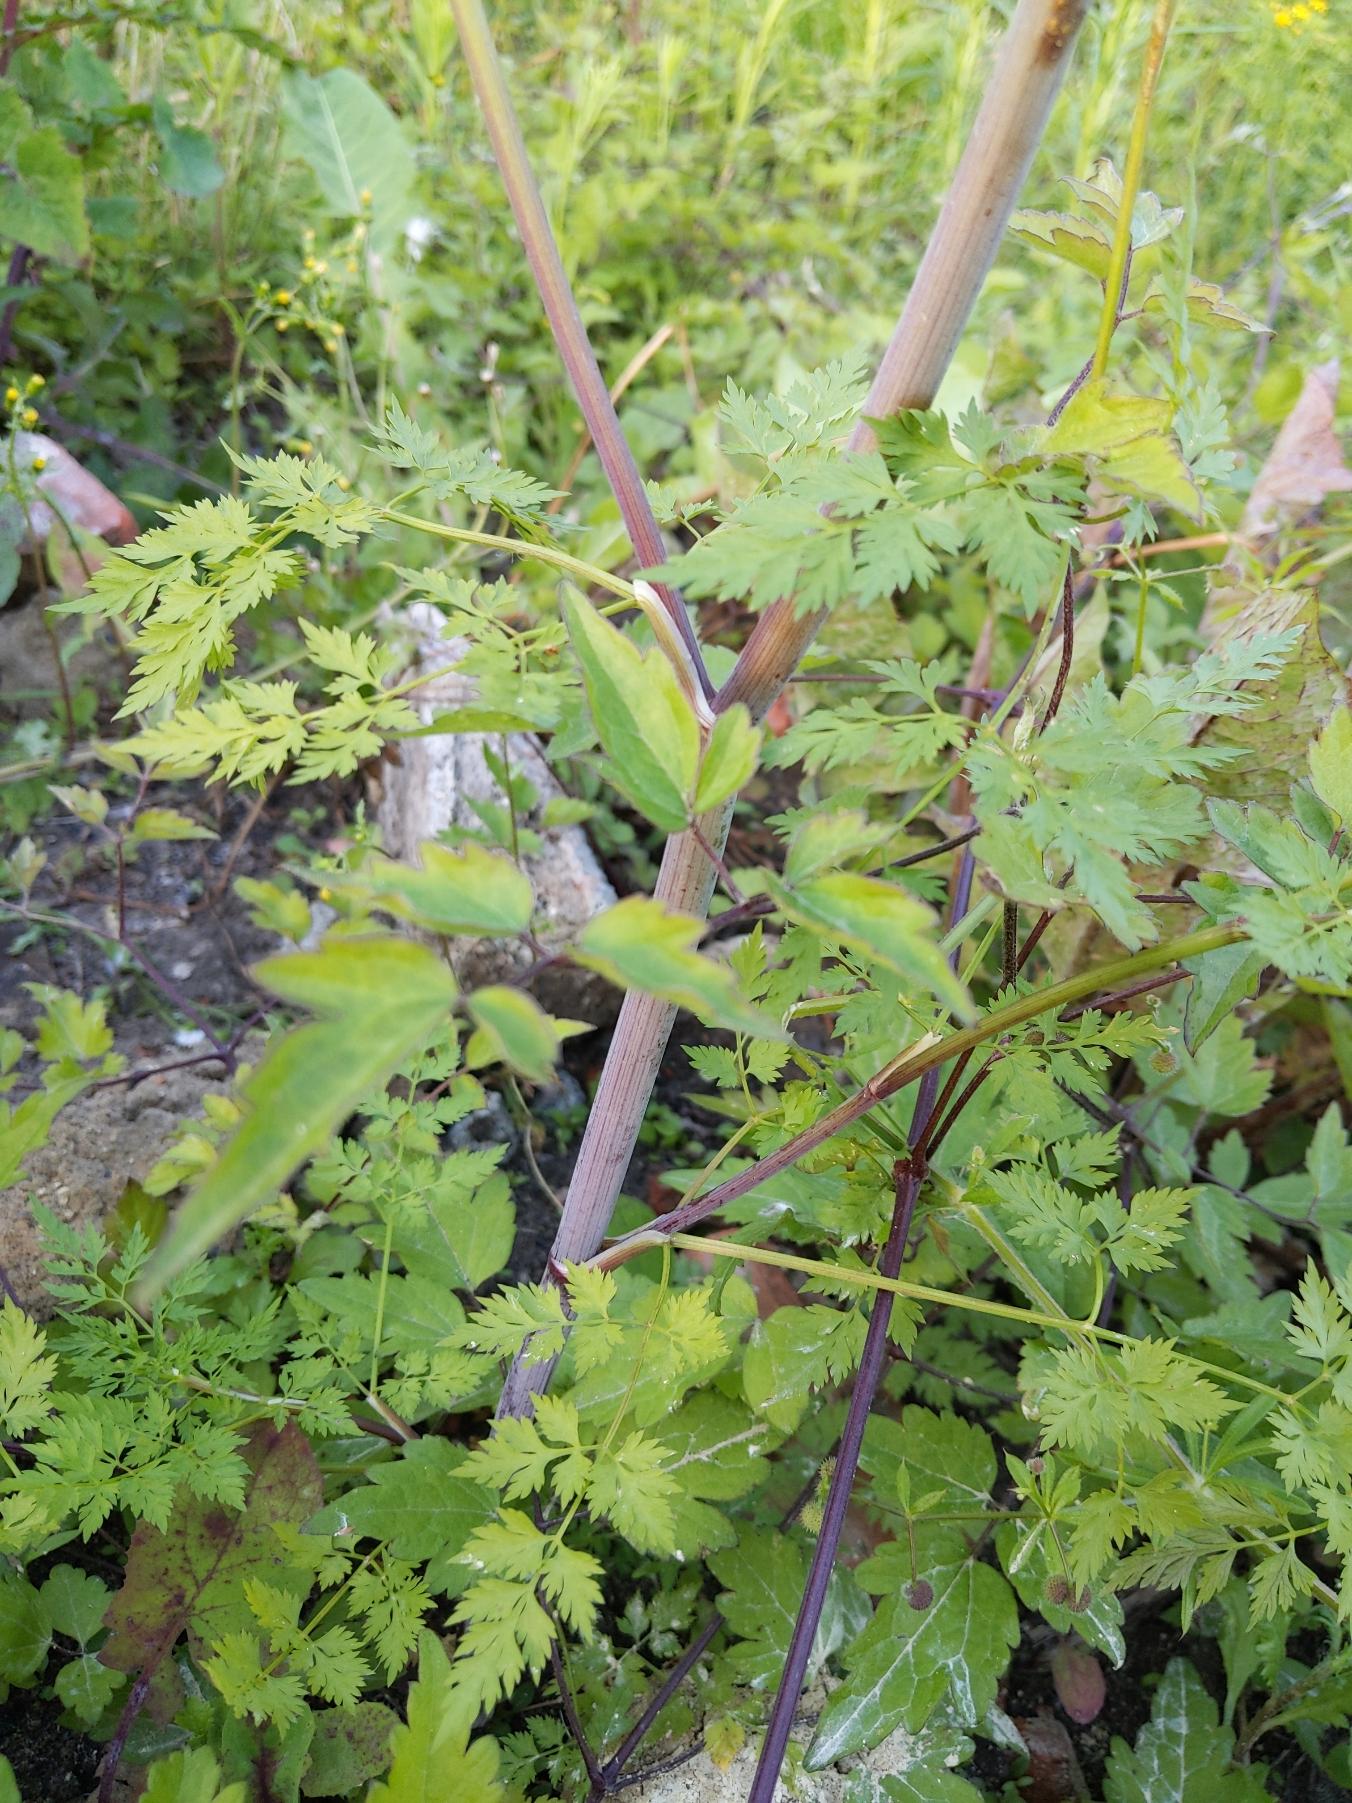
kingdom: Plantae
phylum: Tracheophyta
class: Magnoliopsida
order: Apiales
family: Apiaceae
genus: Aethusa
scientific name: Aethusa cynapium
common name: Hundepersille
